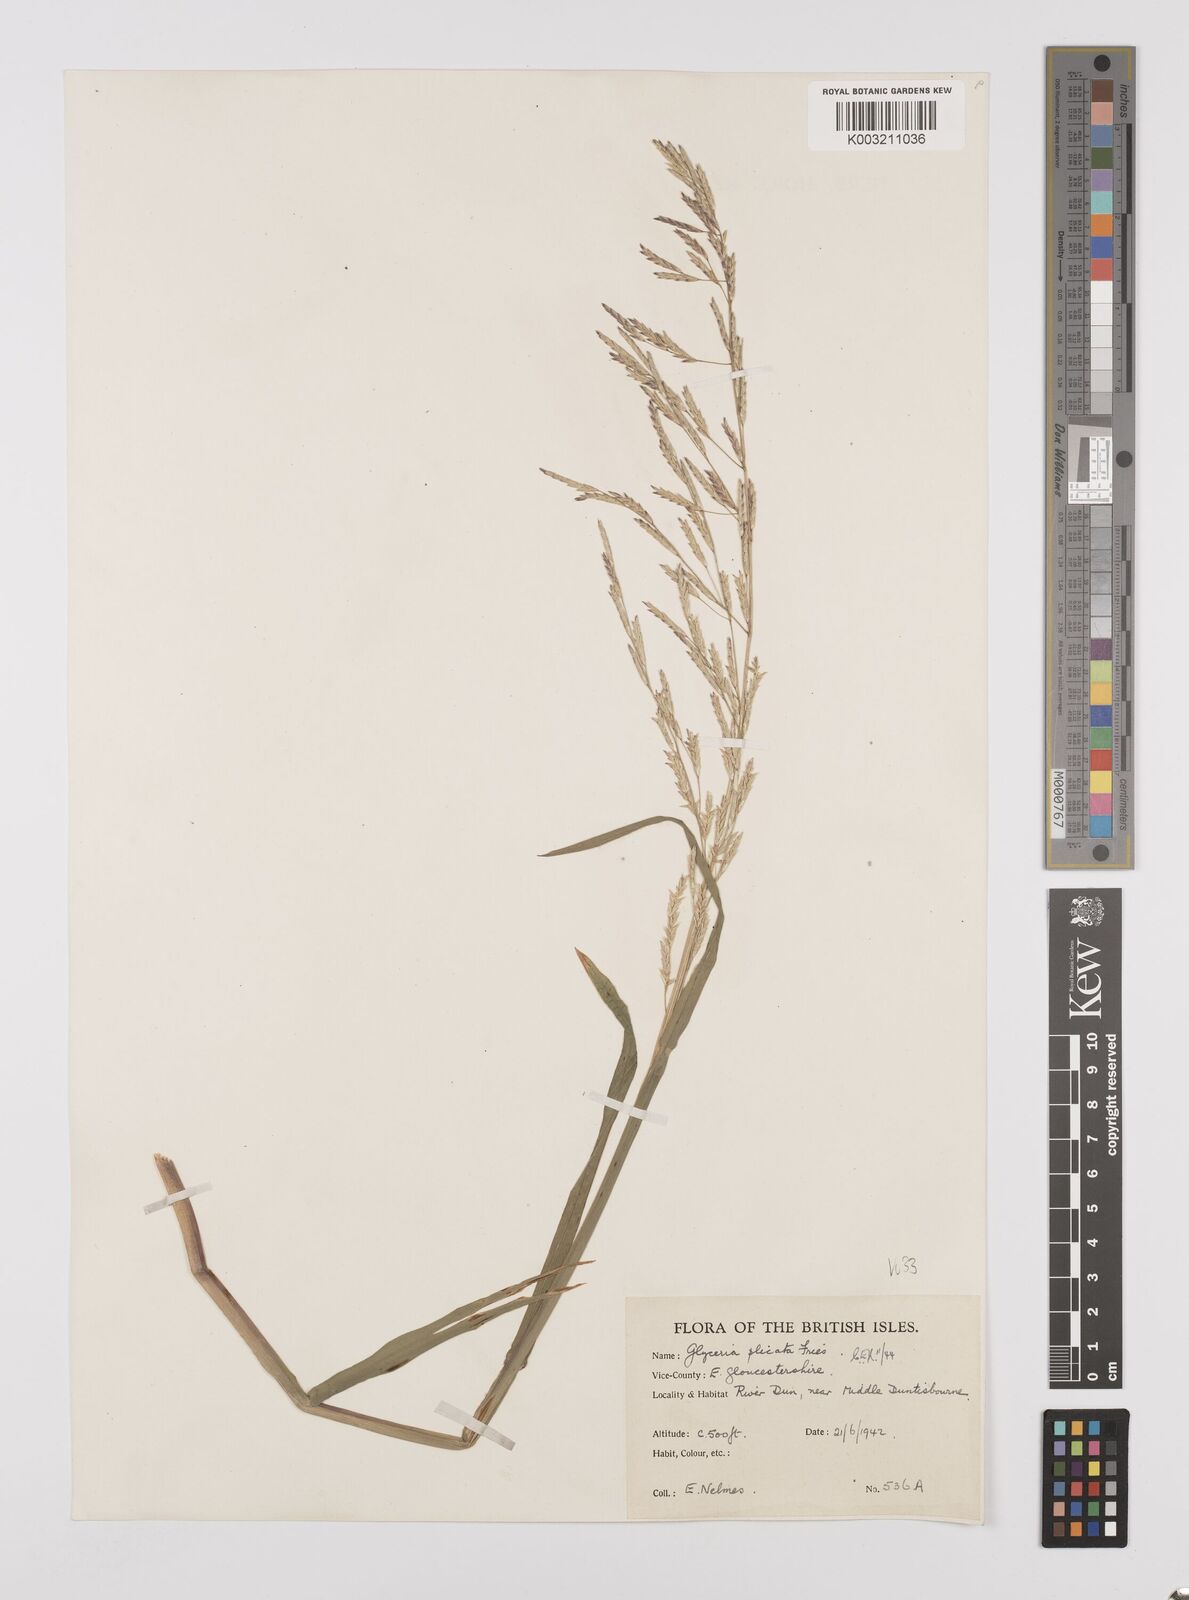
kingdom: Plantae
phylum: Tracheophyta
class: Liliopsida
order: Poales
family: Poaceae
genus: Glyceria
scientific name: Glyceria notata
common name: Plicate sweet-grass
